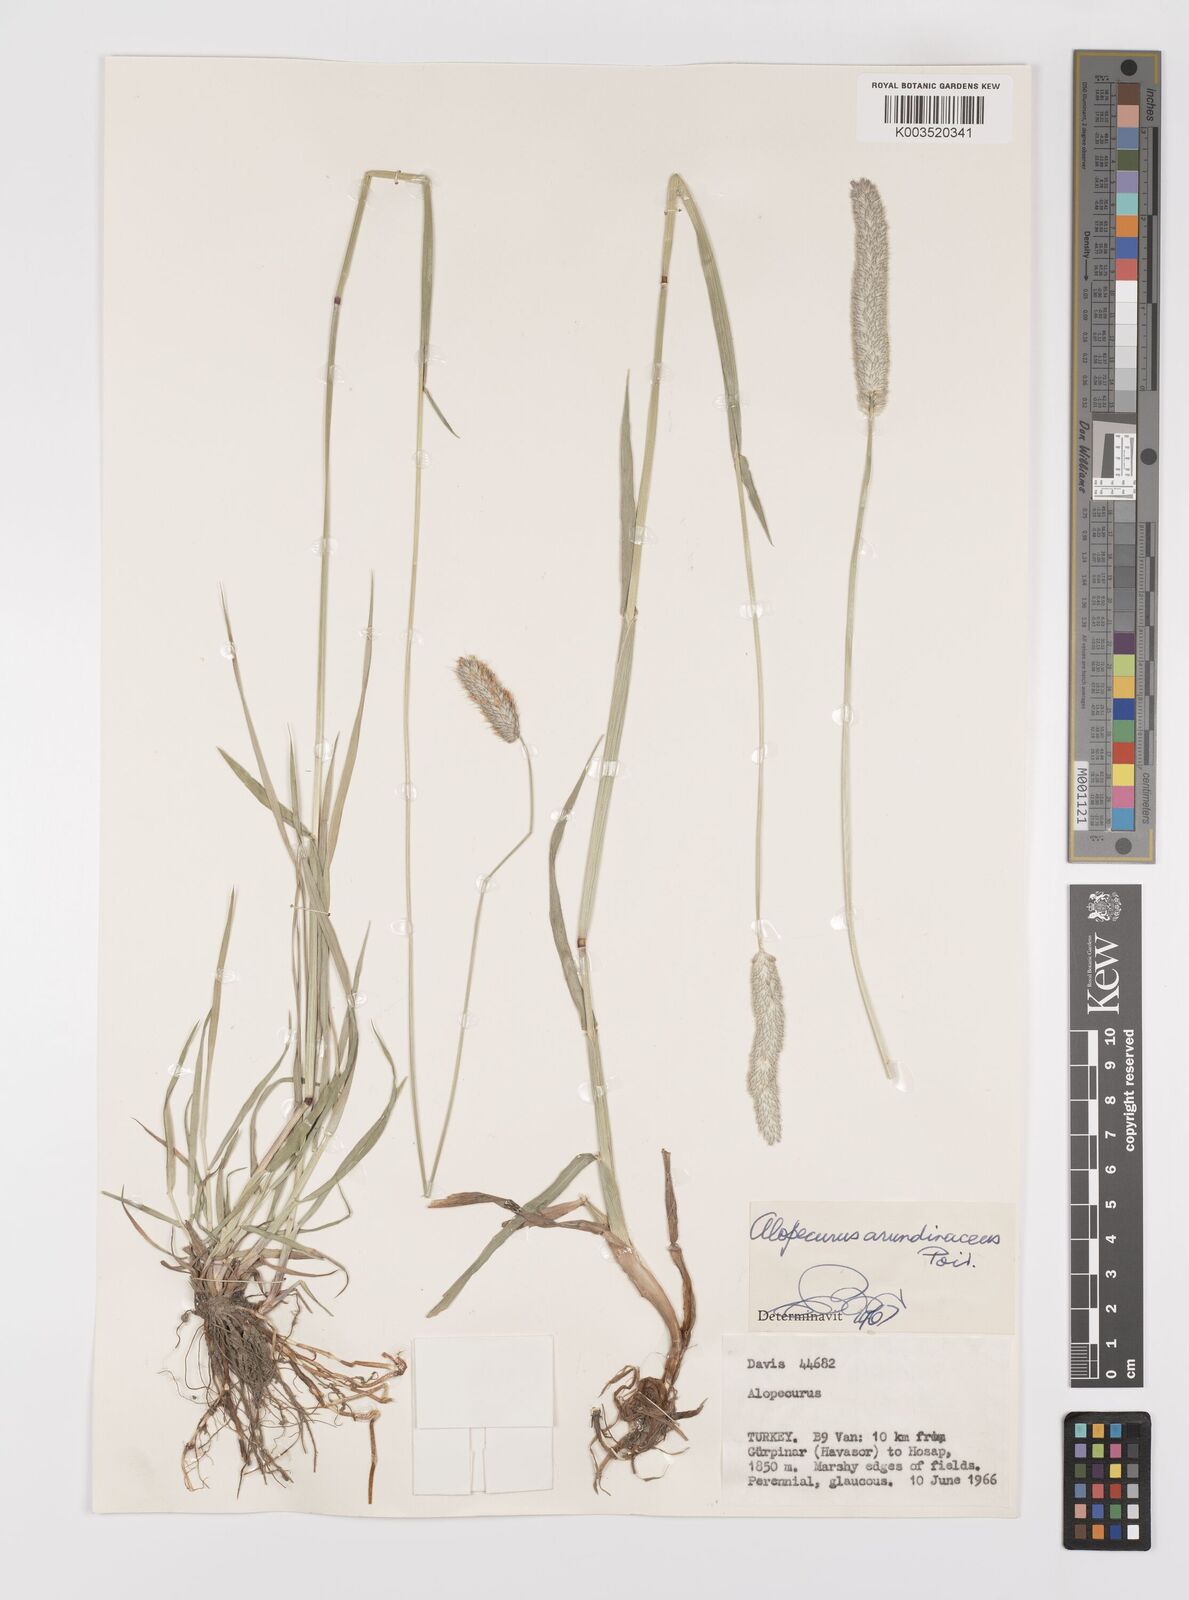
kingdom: Plantae
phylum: Tracheophyta
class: Liliopsida
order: Poales
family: Poaceae
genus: Alopecurus
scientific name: Alopecurus arundinaceus
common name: Creeping meadow foxtail
